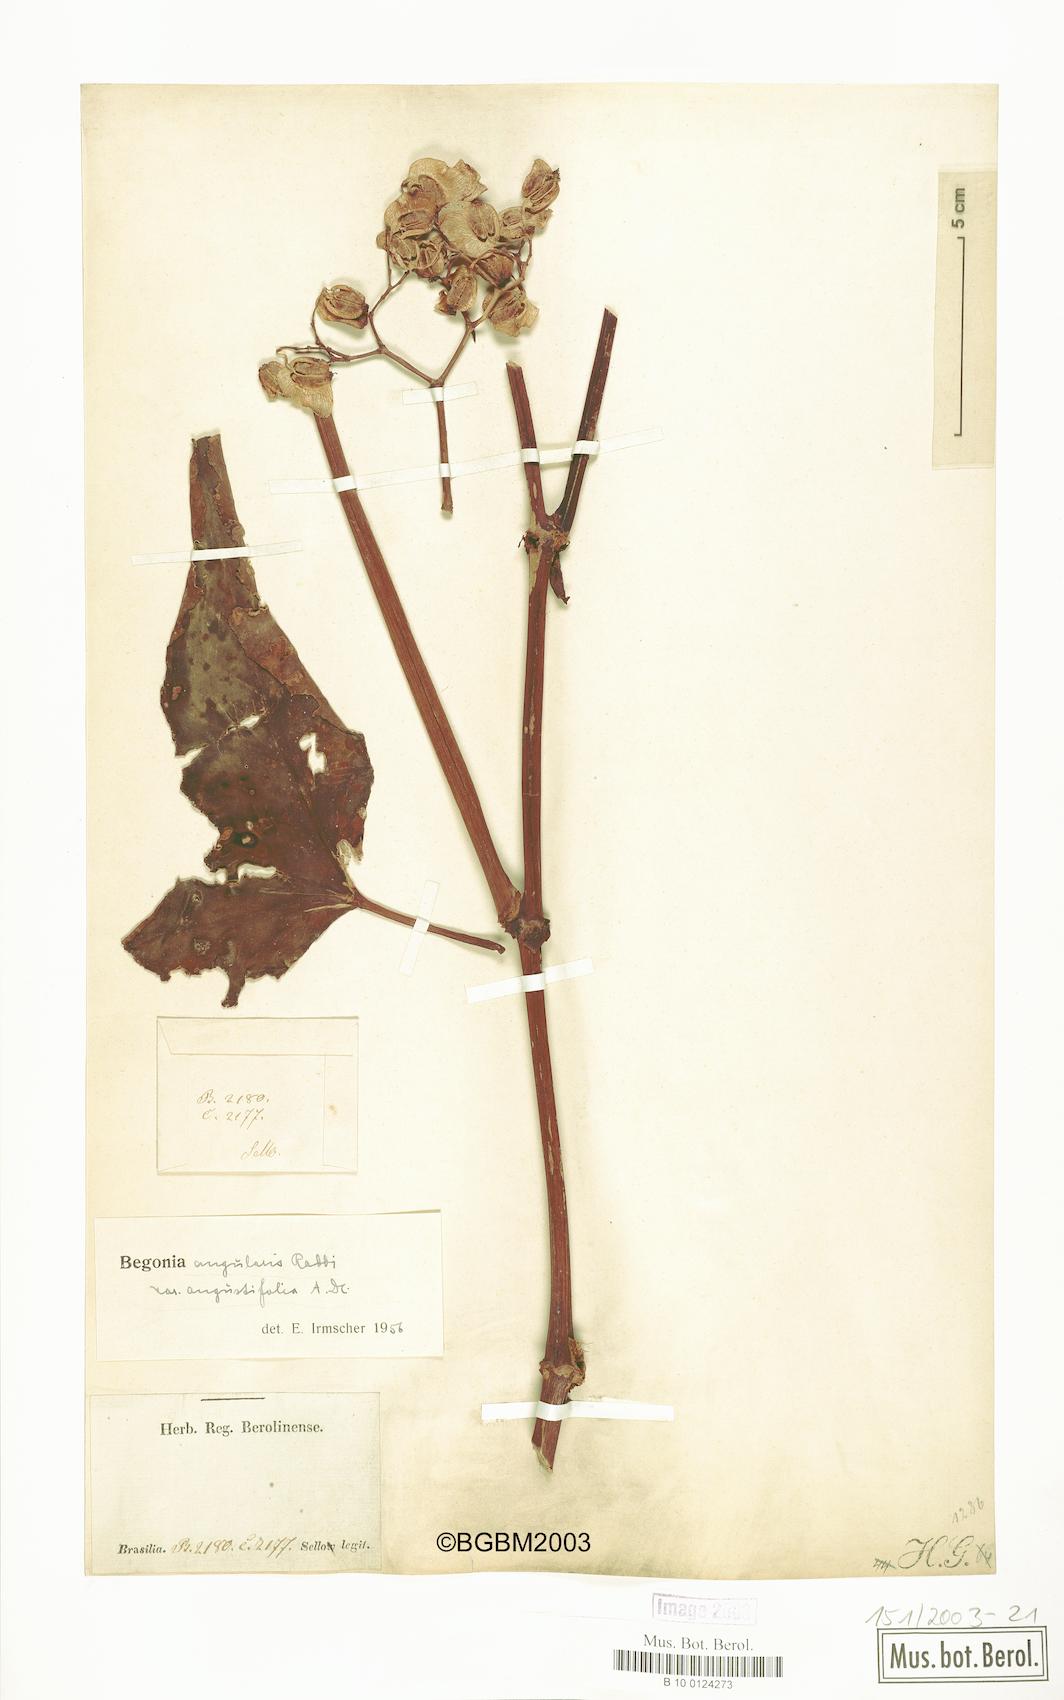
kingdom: Plantae
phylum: Tracheophyta
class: Magnoliopsida
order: Cucurbitales
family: Begoniaceae
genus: Begonia
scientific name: Begonia angularis
